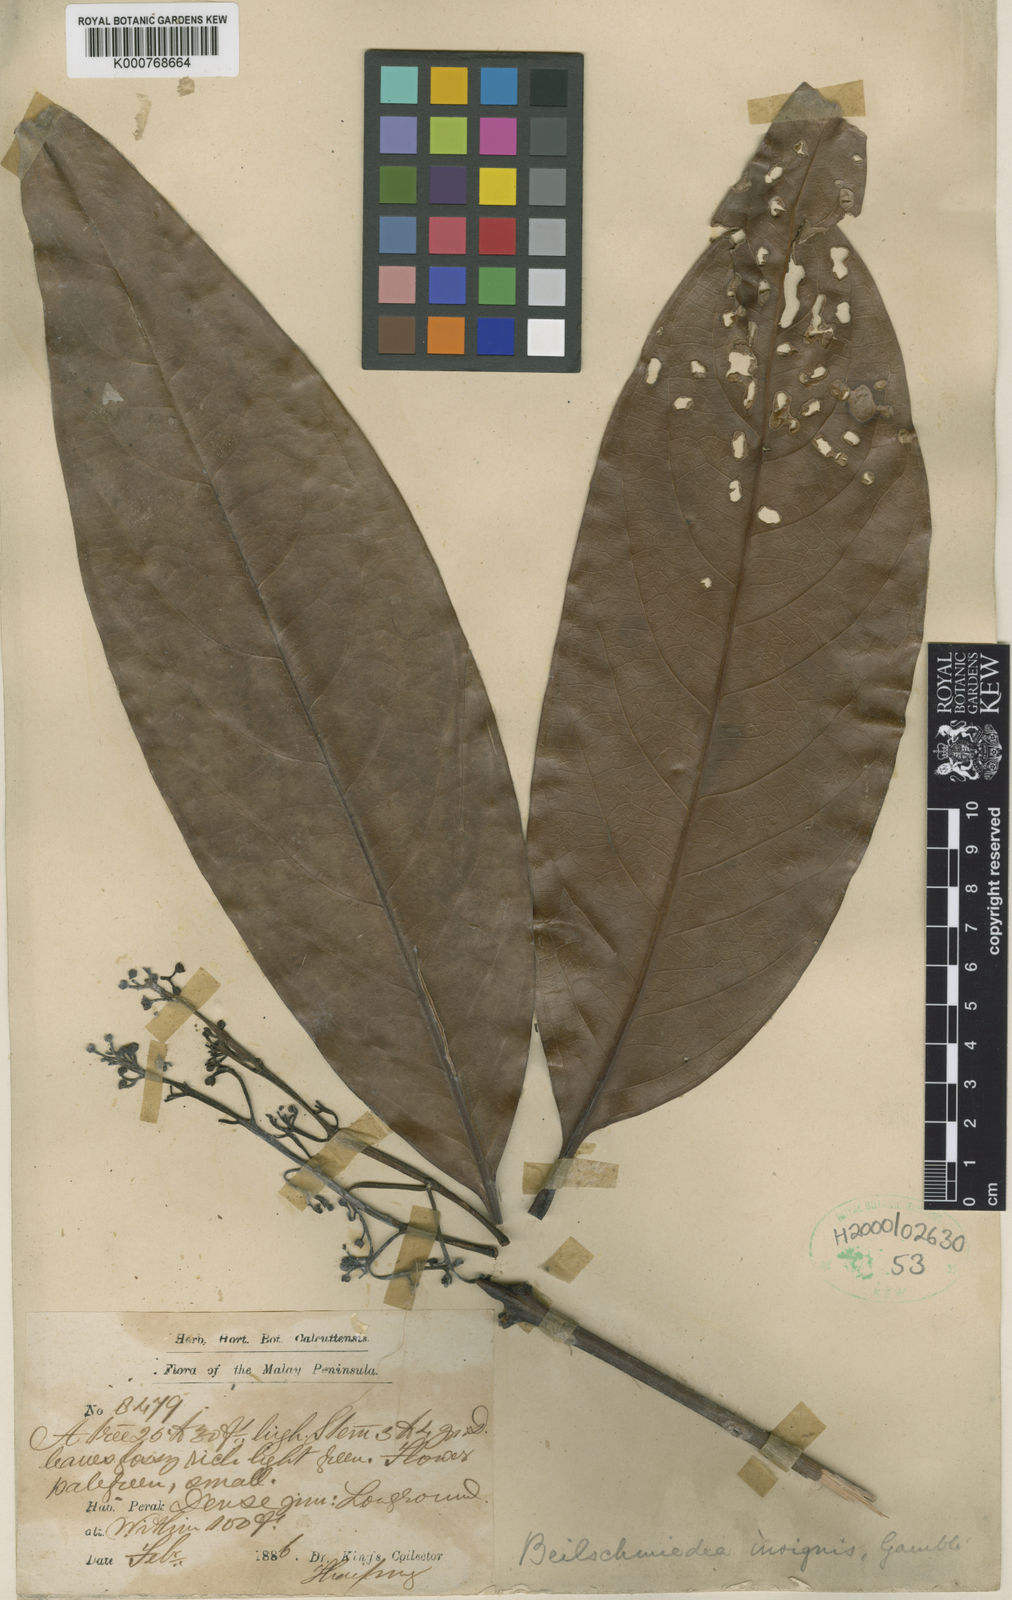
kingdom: Plantae
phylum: Tracheophyta
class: Magnoliopsida
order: Laurales
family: Lauraceae
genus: Beilschmiedia
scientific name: Beilschmiedia insignis
